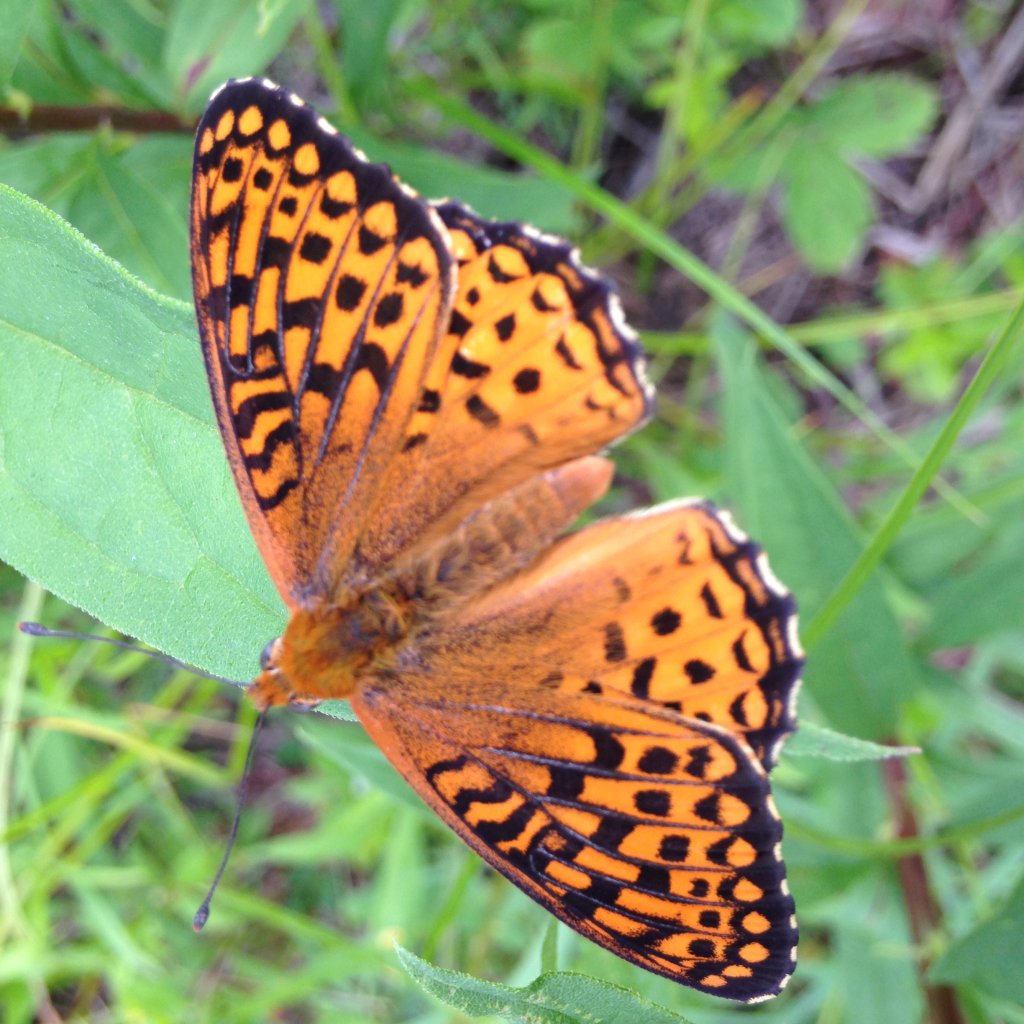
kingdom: Animalia
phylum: Arthropoda
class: Insecta
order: Lepidoptera
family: Nymphalidae
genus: Speyeria
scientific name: Speyeria atlantis
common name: Atlantis Fritillary
